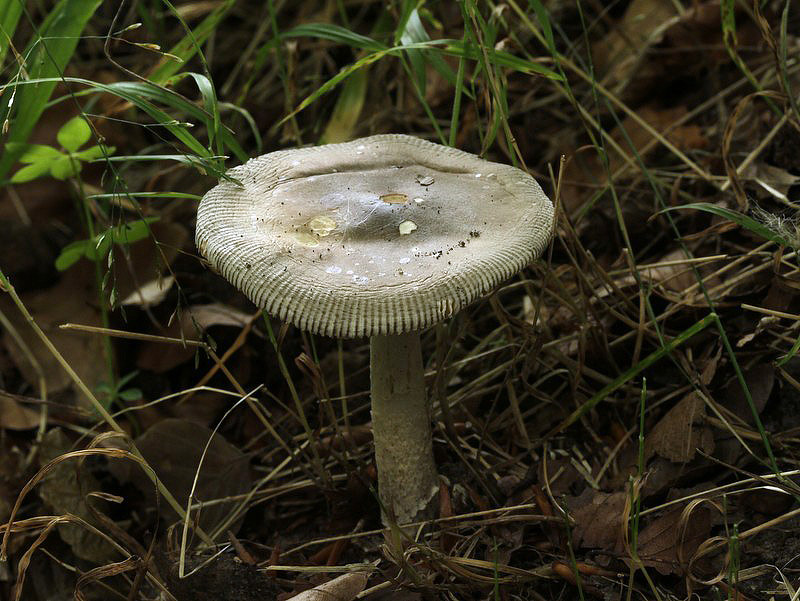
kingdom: Fungi
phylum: Basidiomycota
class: Agaricomycetes
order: Agaricales
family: Amanitaceae
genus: Amanita
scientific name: Amanita vaginata
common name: grå kam-fluesvamp
